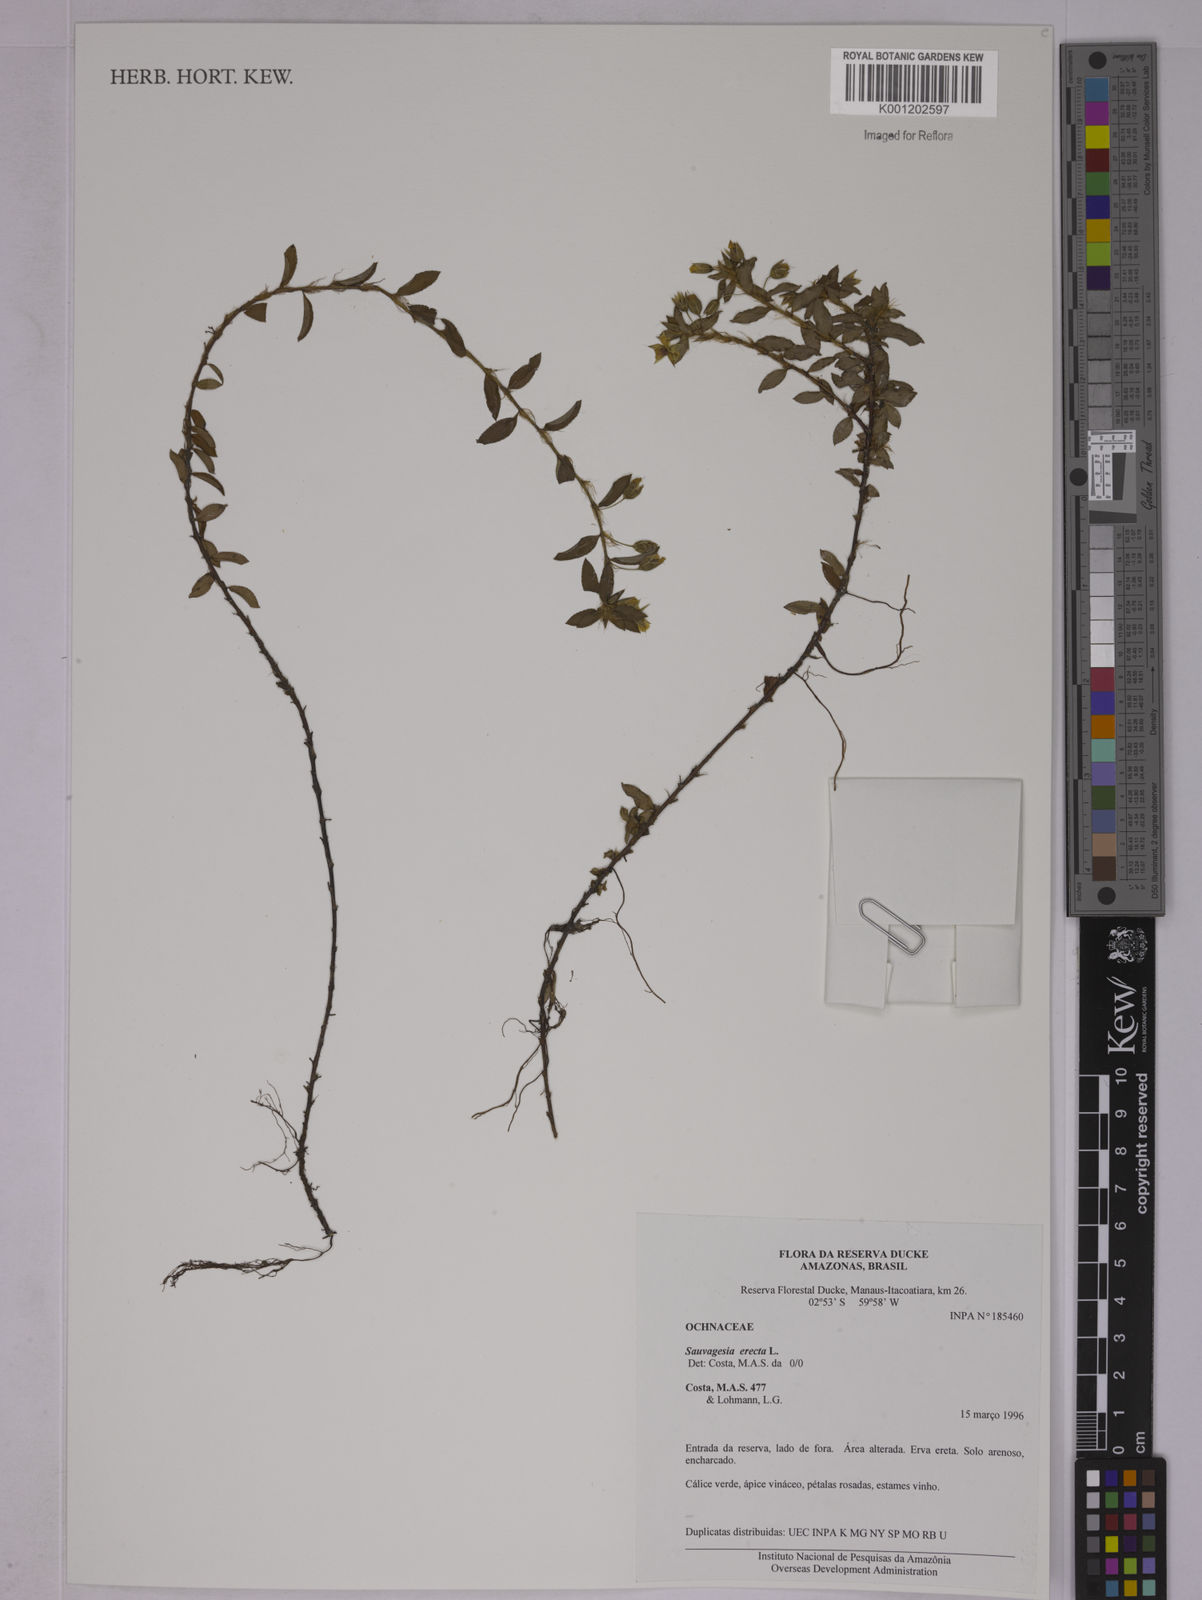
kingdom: Plantae
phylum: Tracheophyta
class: Magnoliopsida
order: Malpighiales
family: Ochnaceae
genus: Sauvagesia
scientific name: Sauvagesia erecta
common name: Creole tea
